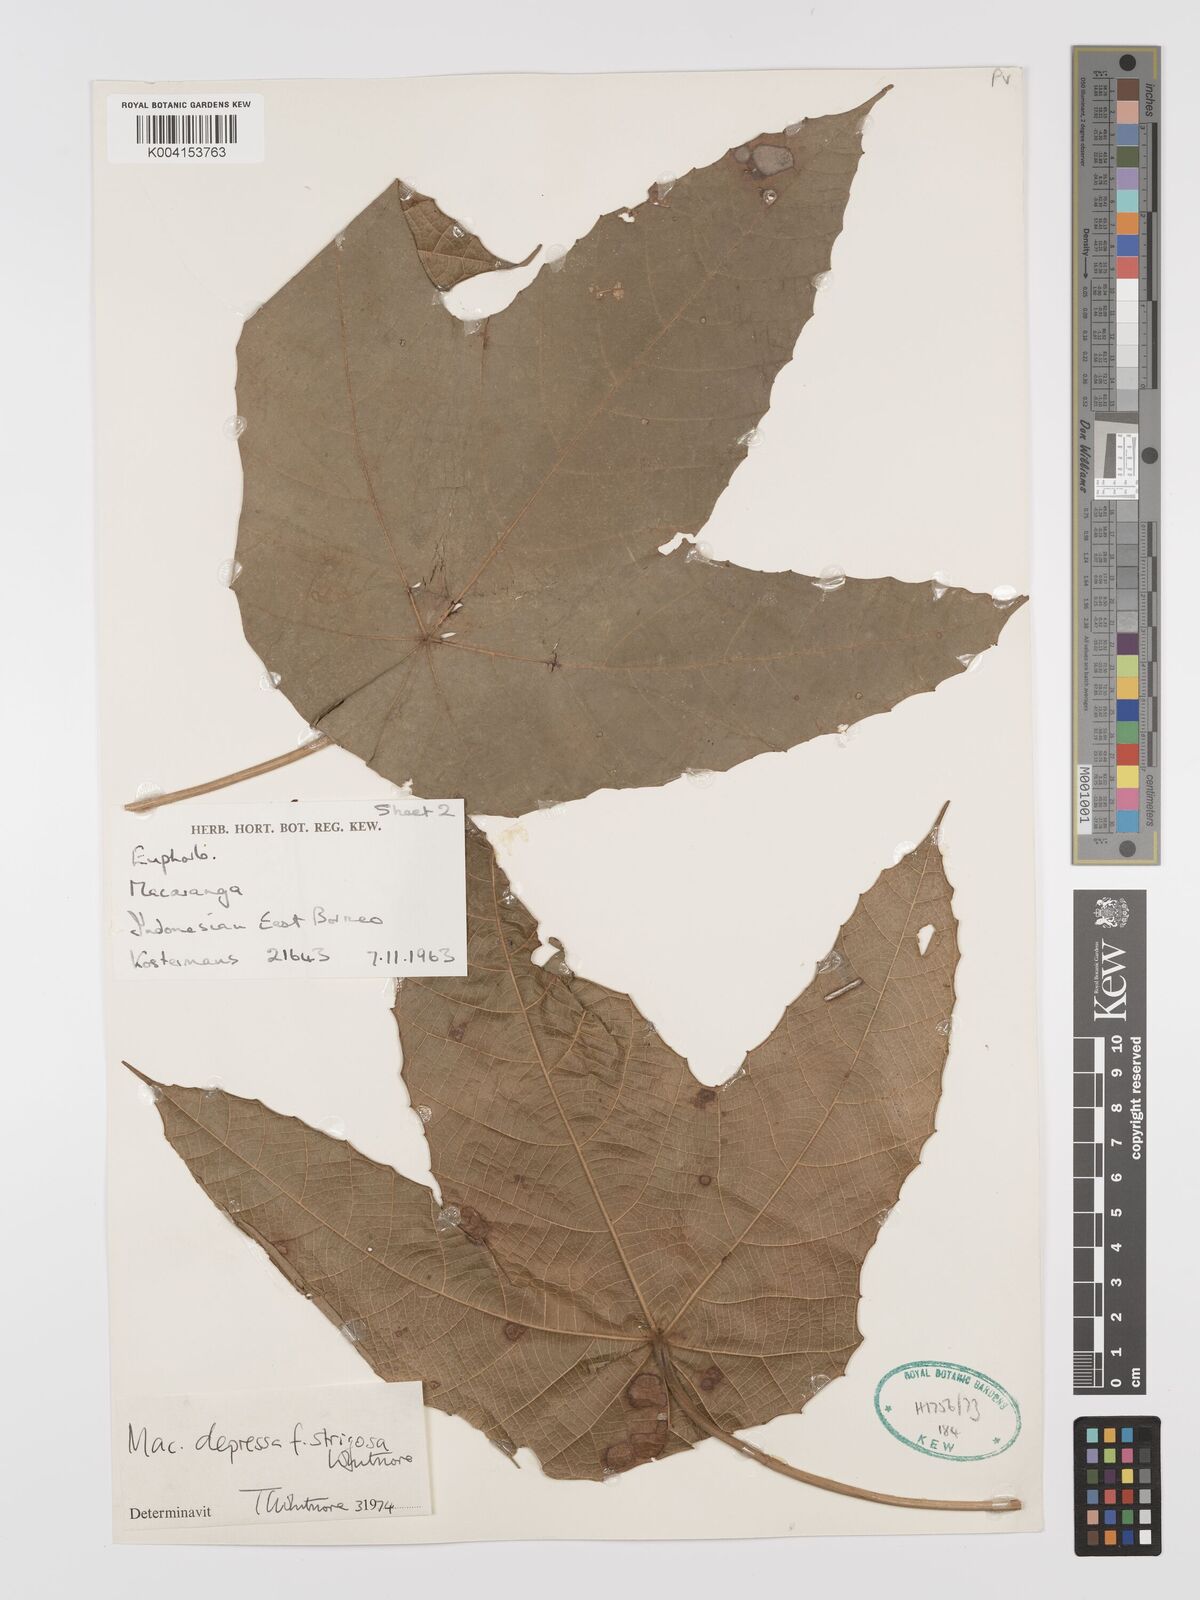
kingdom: Plantae
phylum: Tracheophyta
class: Magnoliopsida
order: Malpighiales
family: Euphorbiaceae
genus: Macaranga
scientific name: Macaranga depressa
